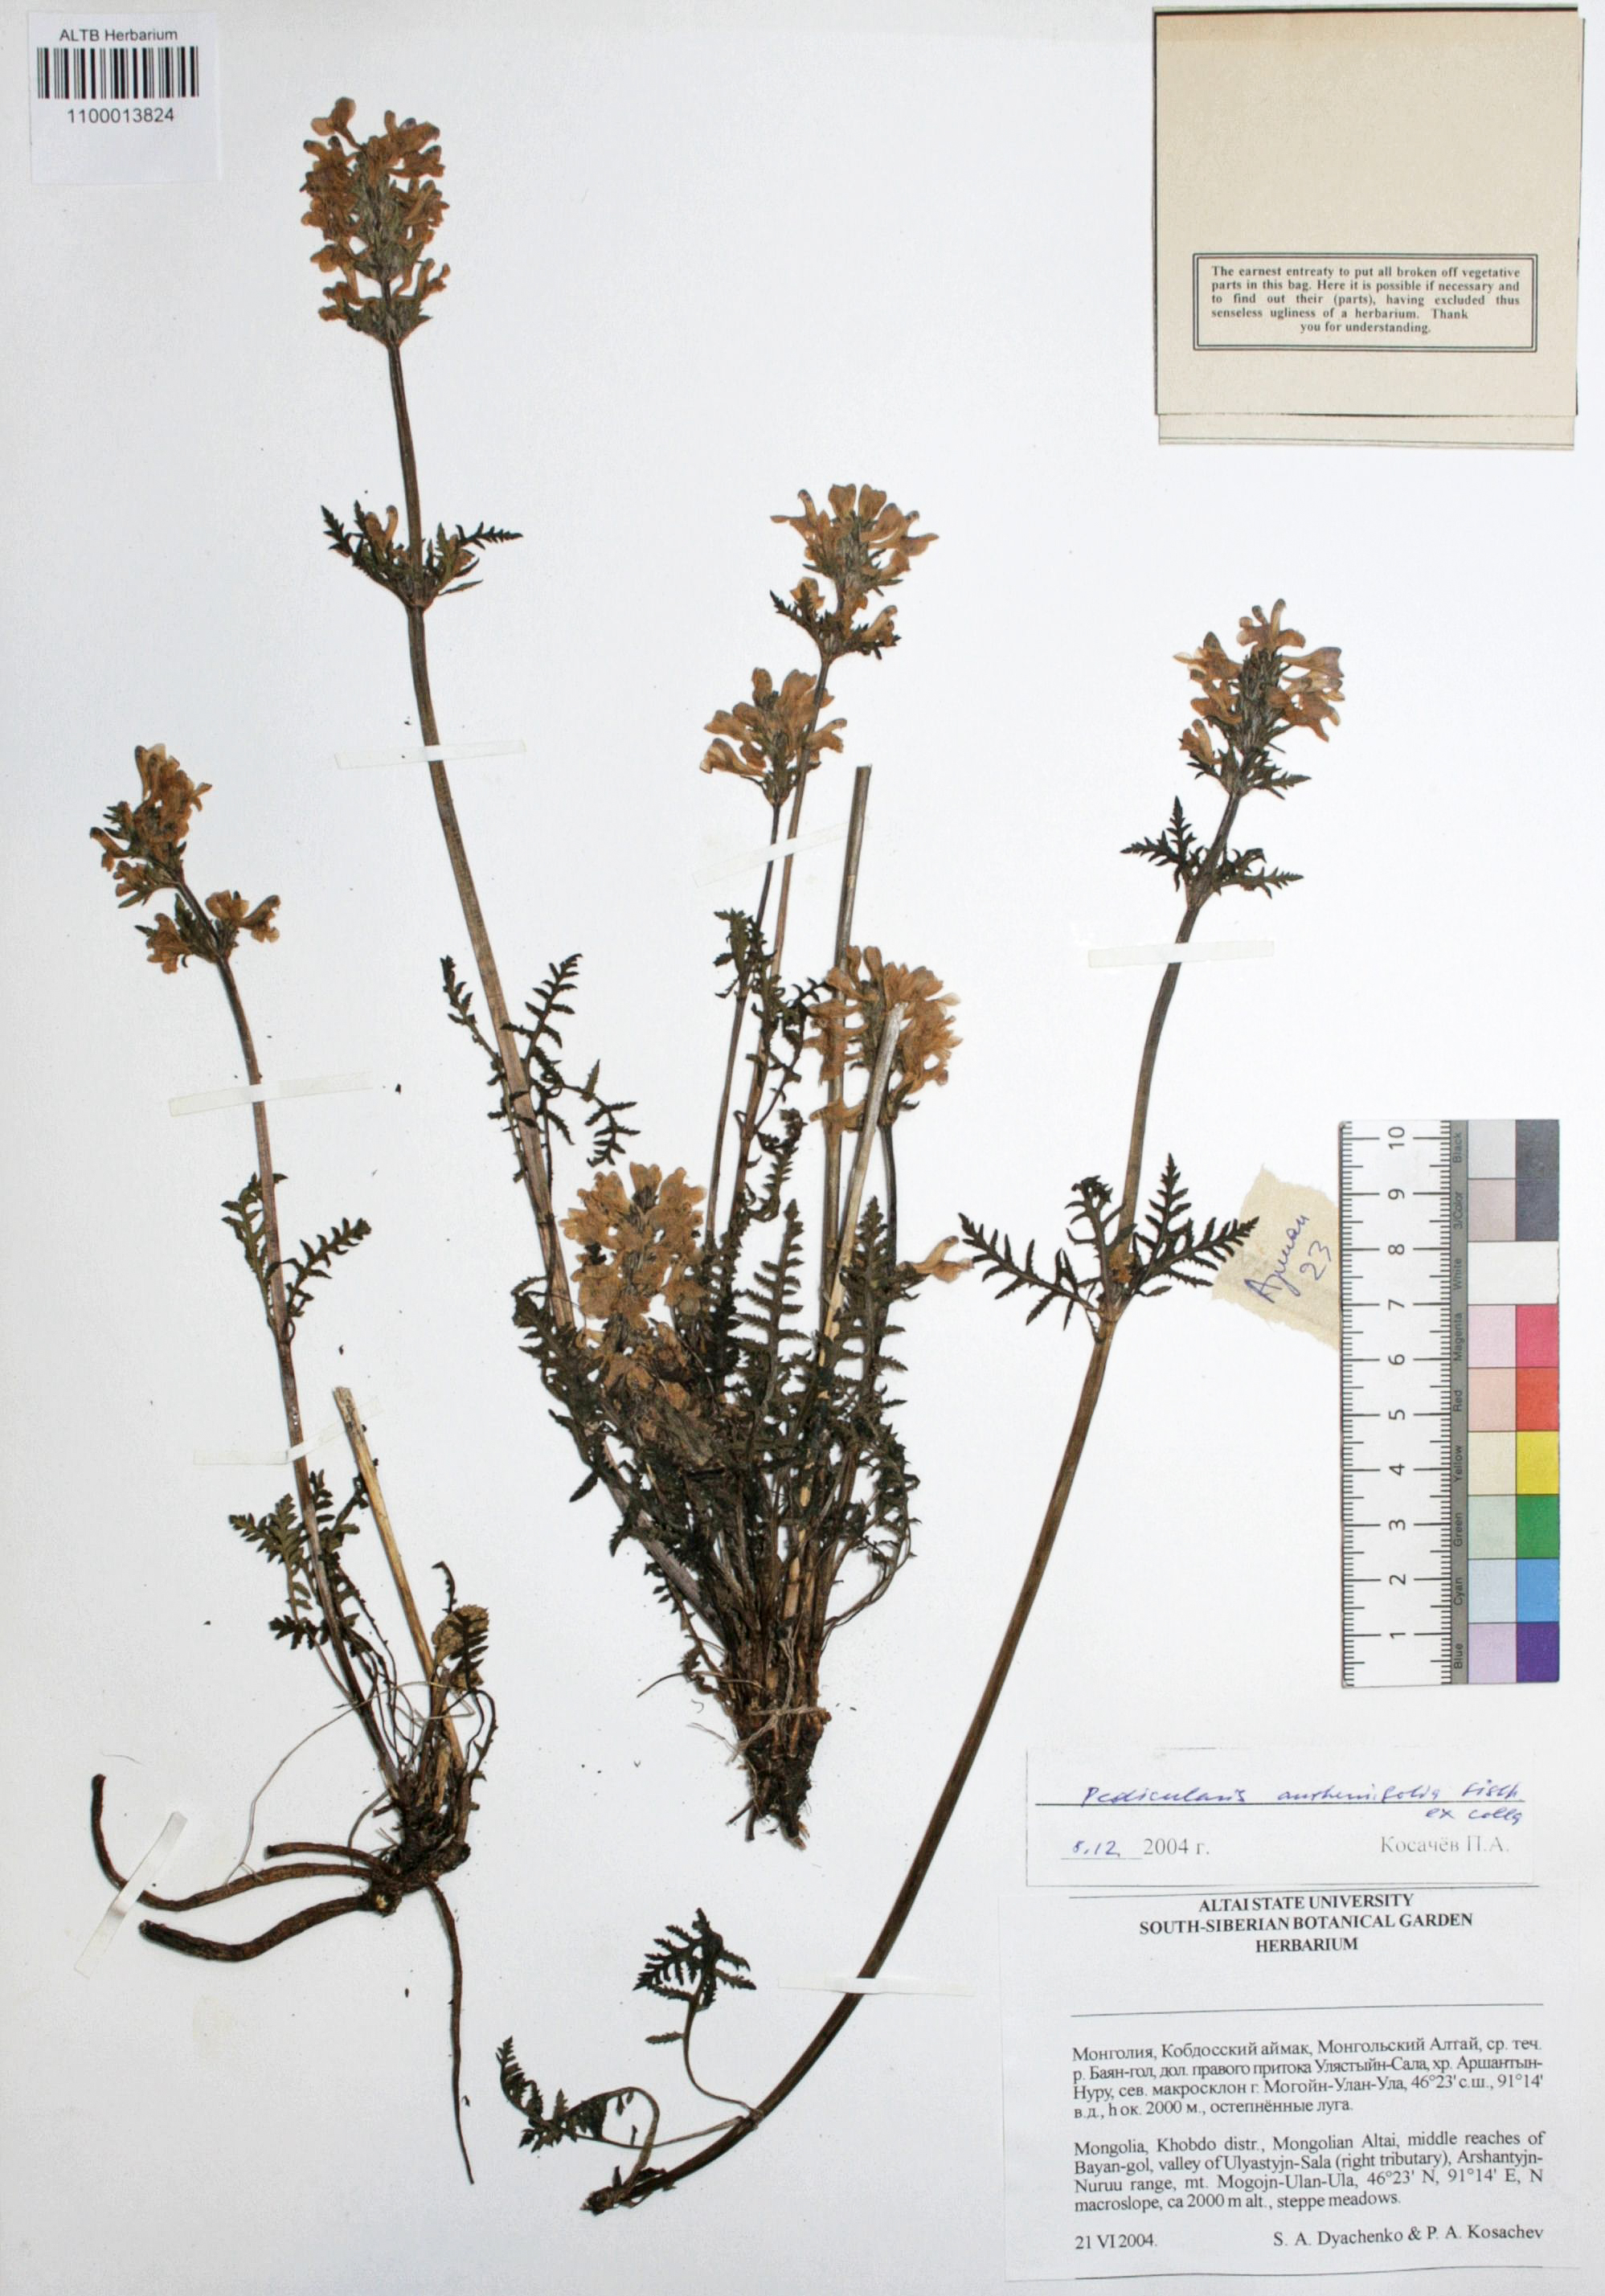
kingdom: Plantae
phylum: Tracheophyta
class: Magnoliopsida
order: Lamiales
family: Orobanchaceae
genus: Pedicularis
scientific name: Pedicularis anthemifolia
